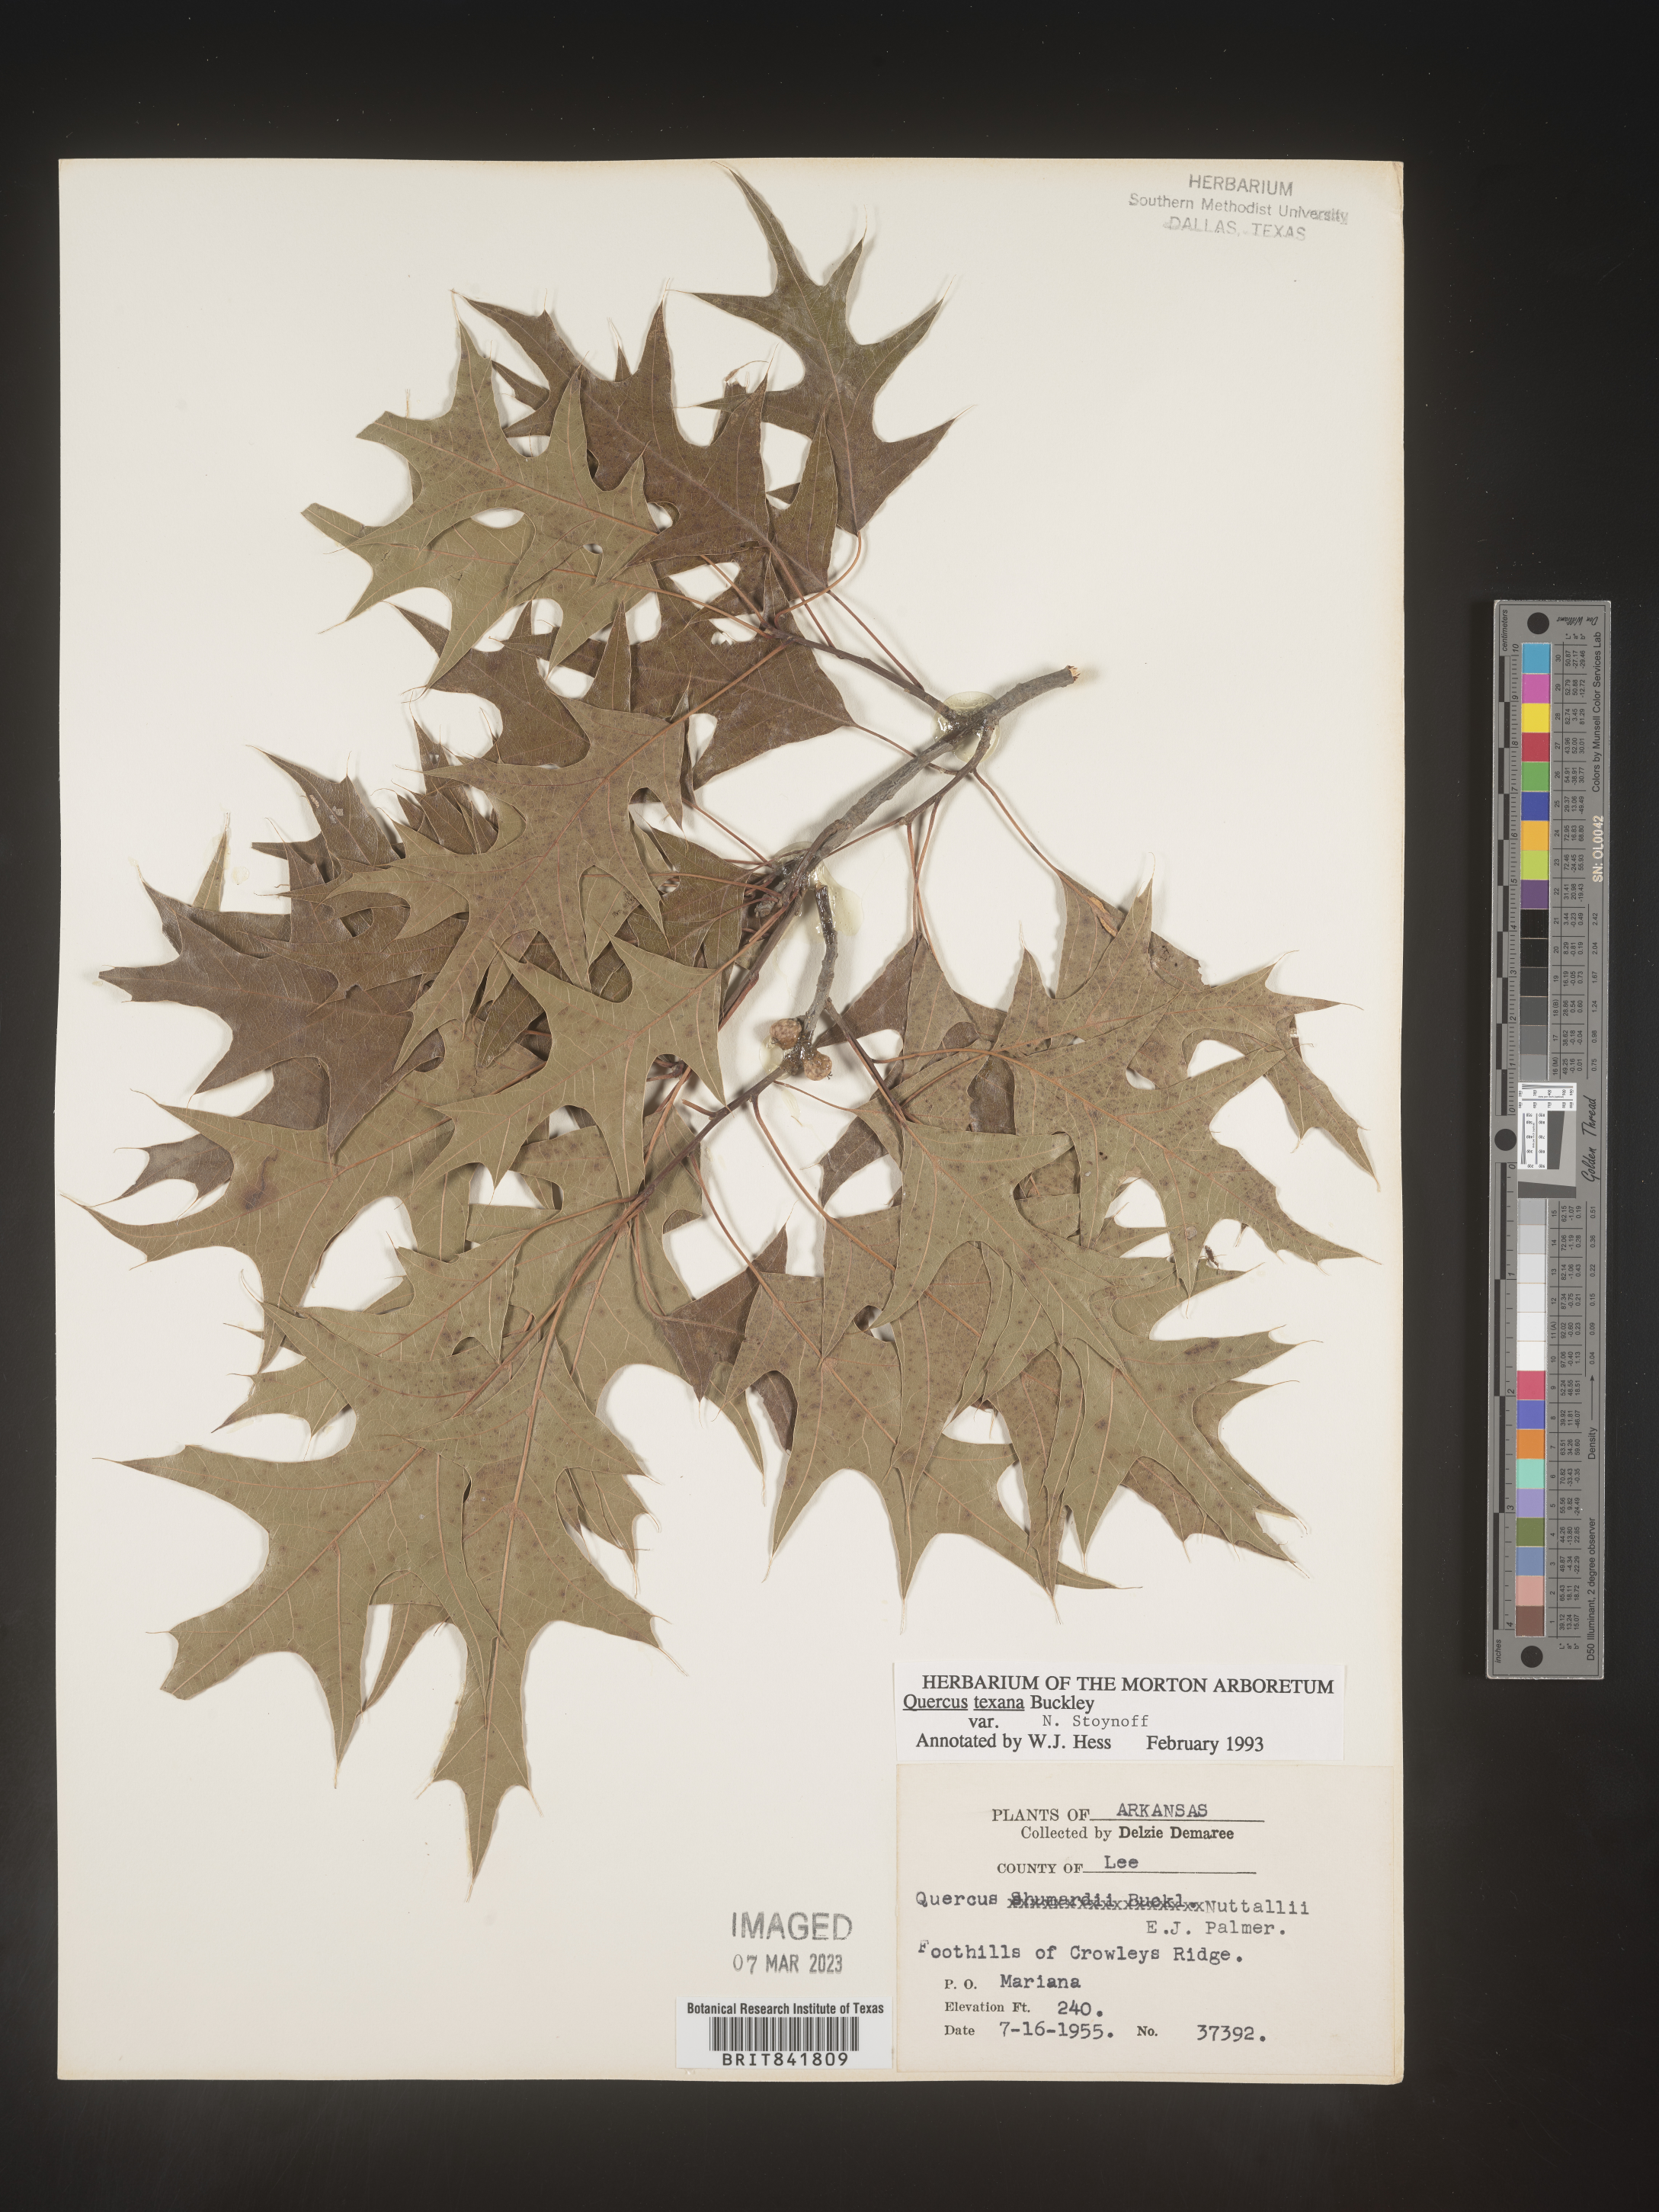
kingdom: Plantae
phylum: Tracheophyta
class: Magnoliopsida
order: Fagales
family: Fagaceae
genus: Quercus
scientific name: Quercus texana
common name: Nuttall oak
